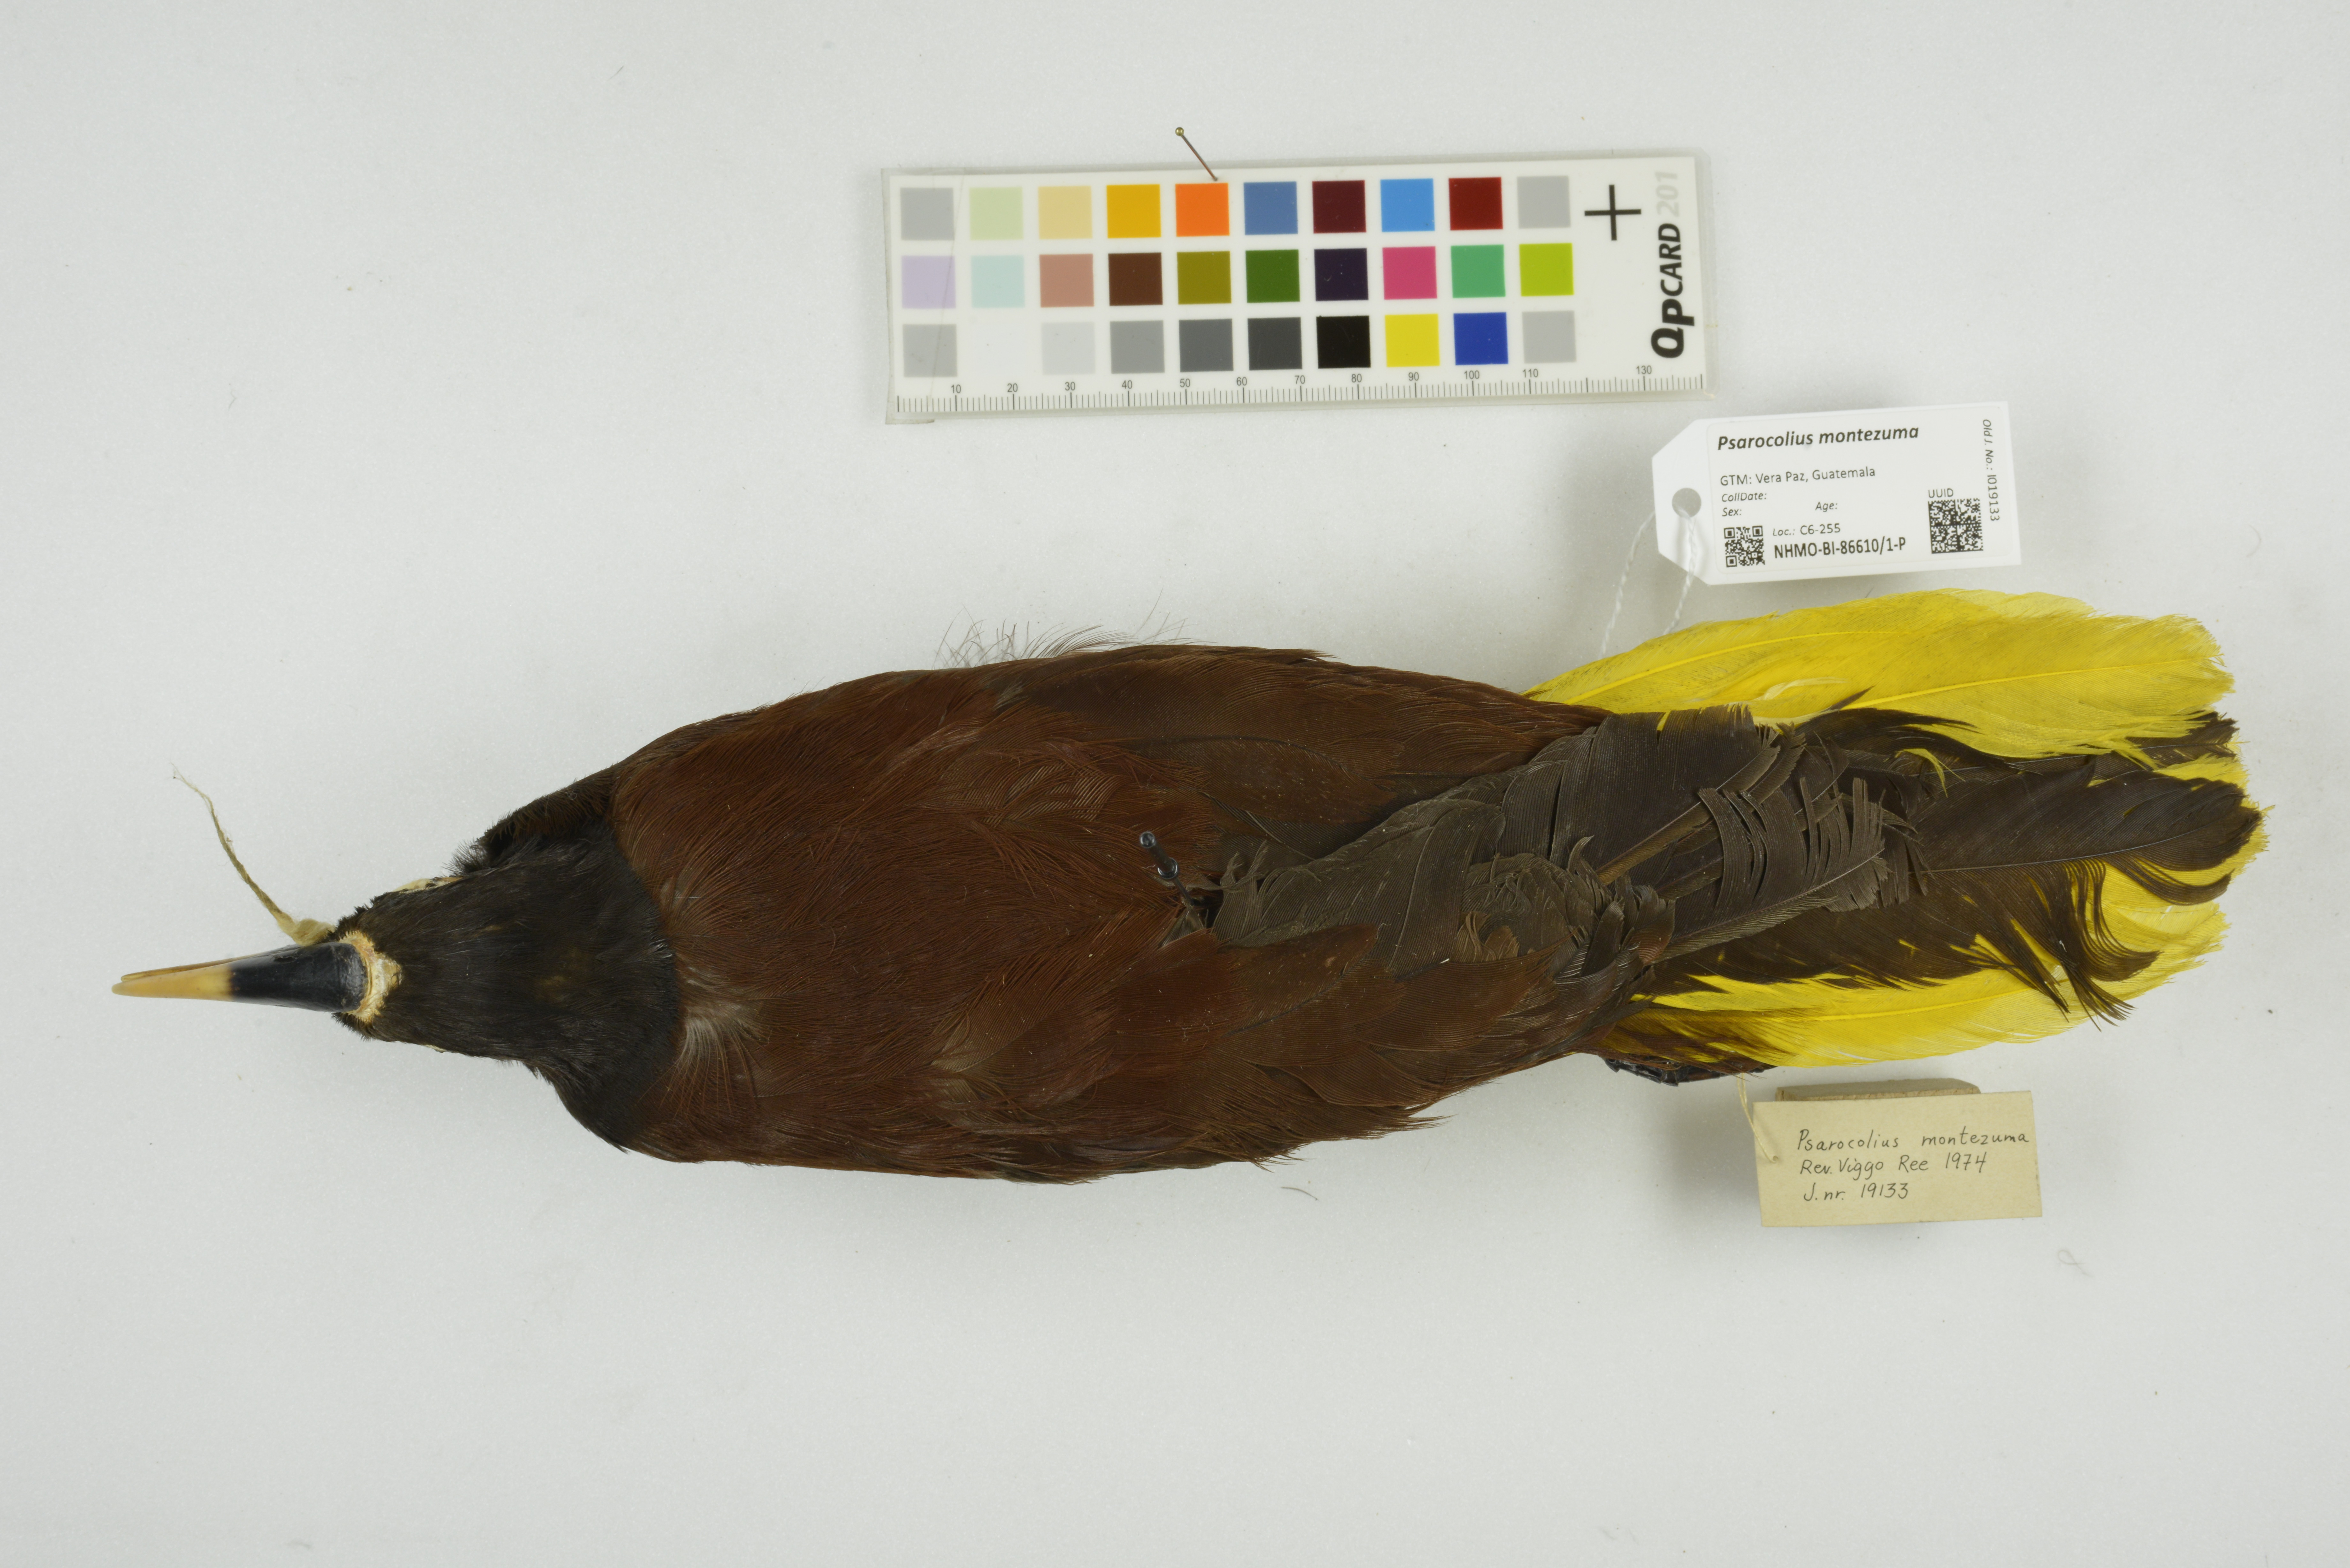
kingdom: Animalia
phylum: Chordata
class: Aves
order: Passeriformes
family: Icteridae
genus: Psarocolius
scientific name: Psarocolius montezuma
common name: Montezuma oropendola
